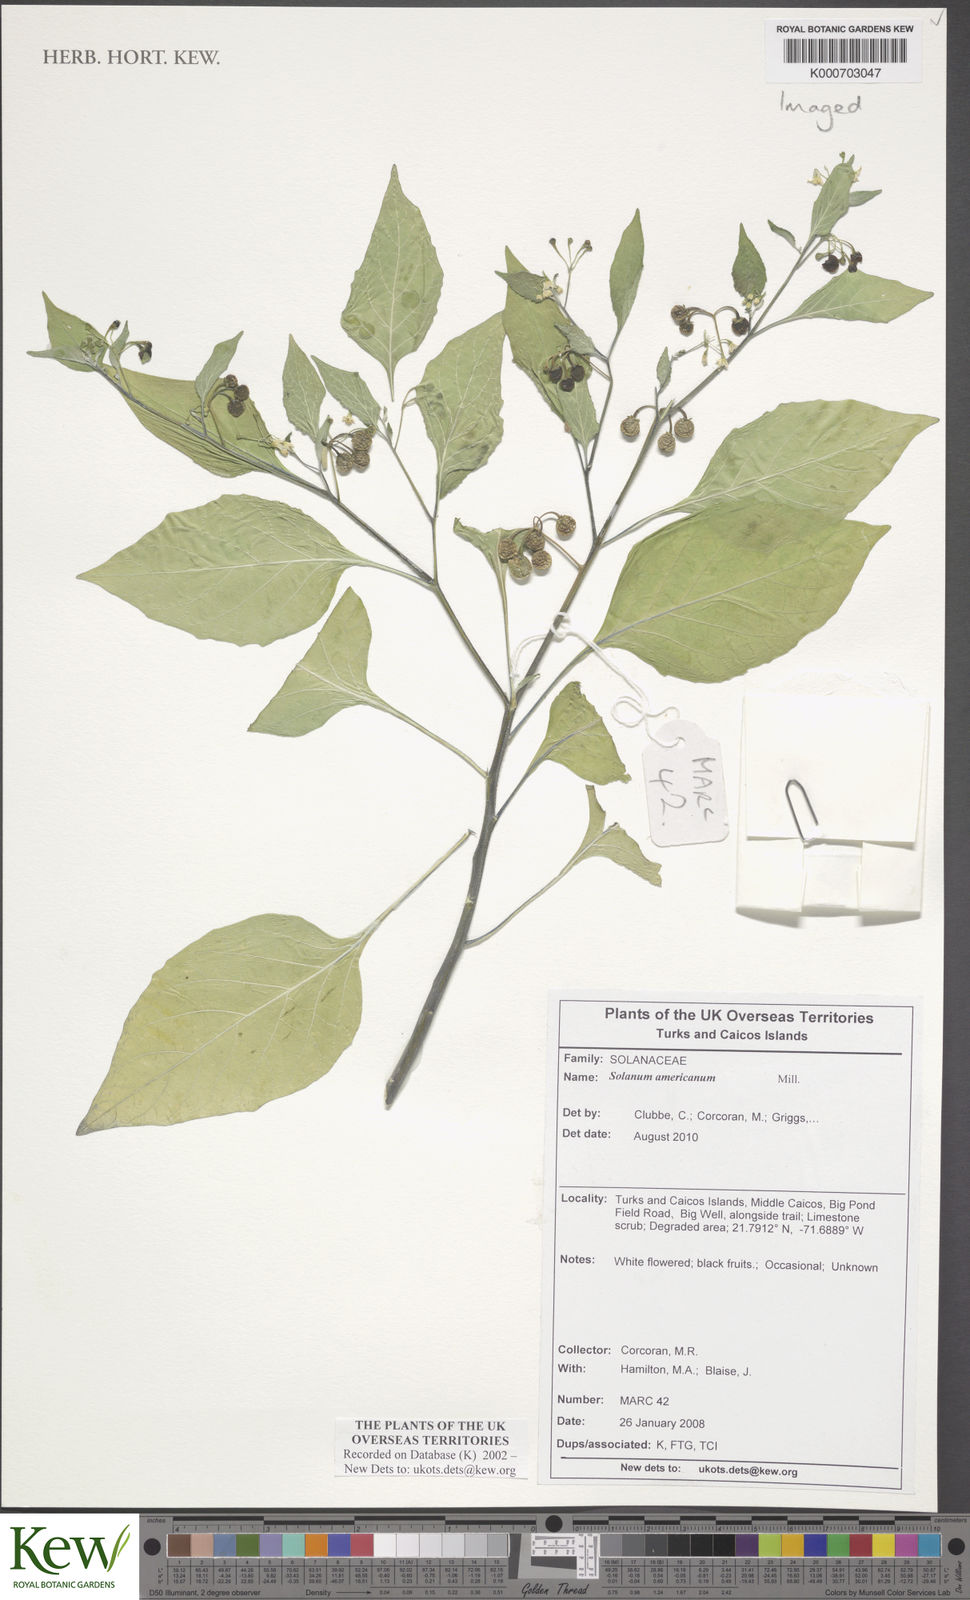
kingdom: Plantae
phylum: Tracheophyta
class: Magnoliopsida
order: Solanales
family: Solanaceae
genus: Solanum
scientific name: Solanum americanum
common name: American black nightshade
